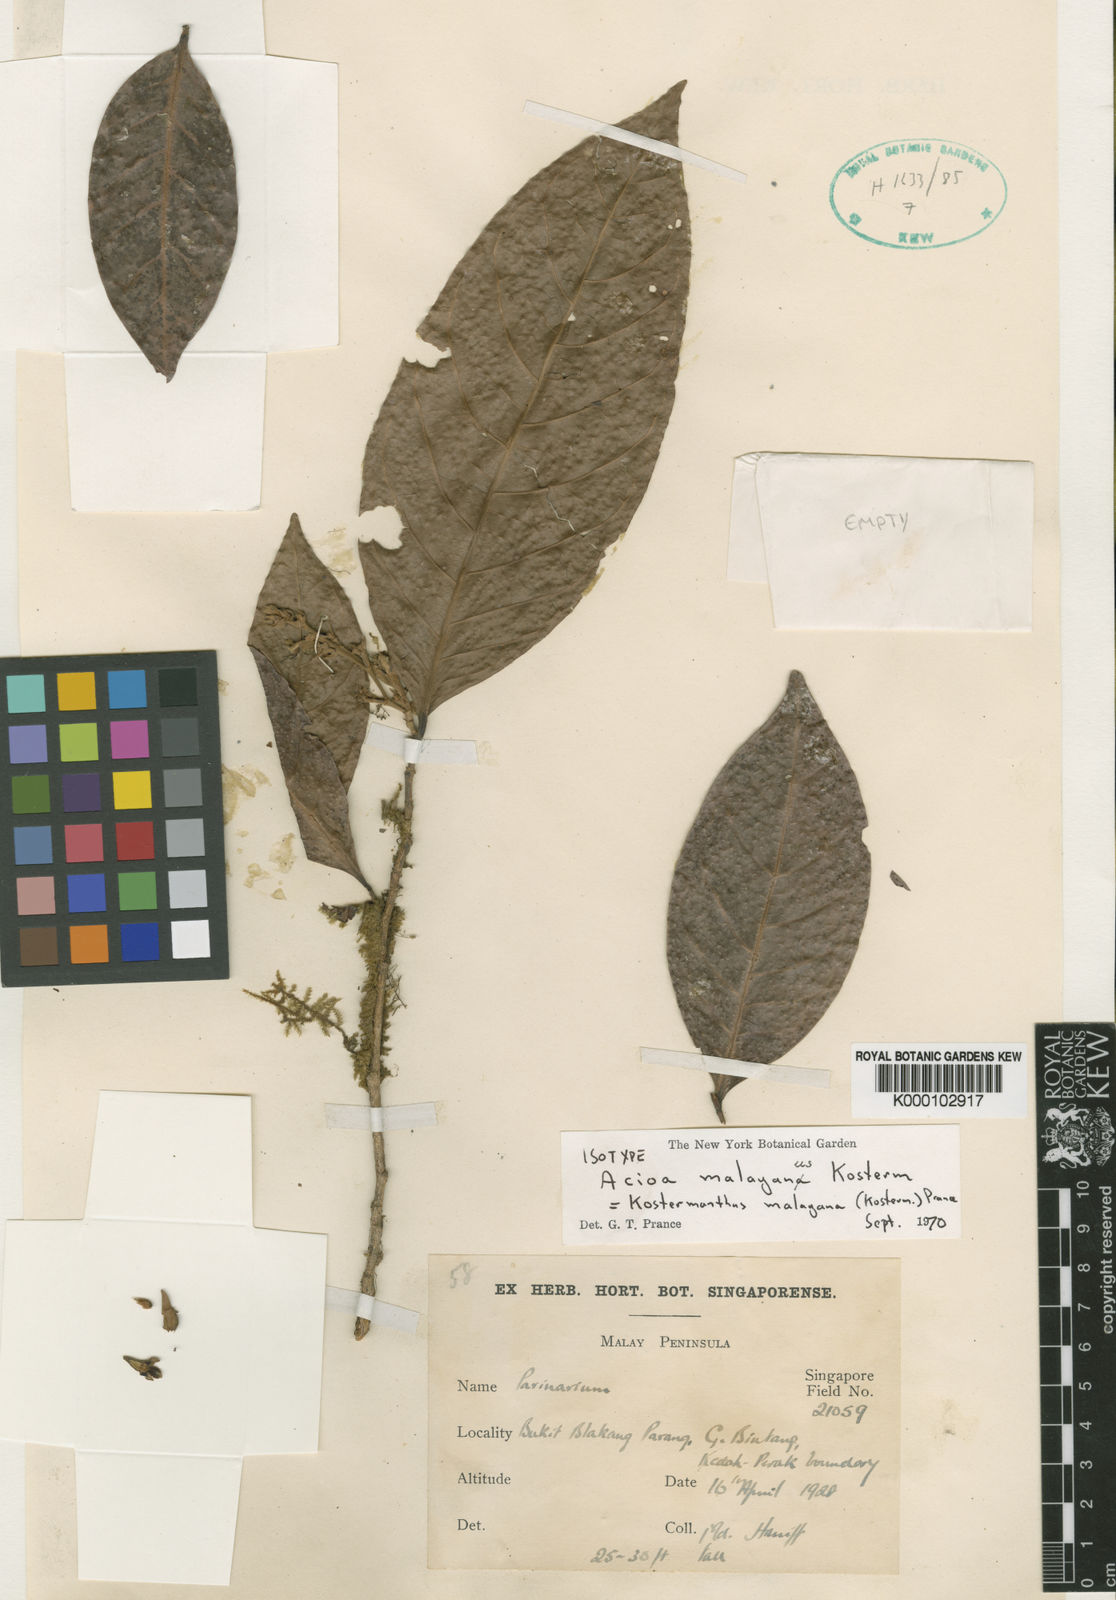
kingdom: Plantae
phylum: Tracheophyta
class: Magnoliopsida
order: Malpighiales
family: Chrysobalanaceae
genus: Kostermanthus
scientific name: Kostermanthus malayanus
